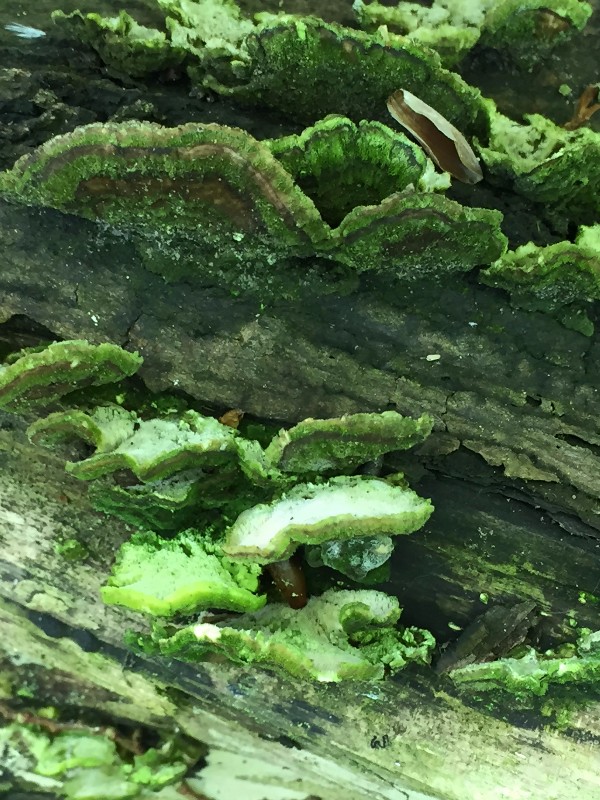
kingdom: Fungi
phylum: Basidiomycota
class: Agaricomycetes
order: Polyporales
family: Polyporaceae
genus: Trametes
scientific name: Trametes versicolor
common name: broget læderporesvamp
